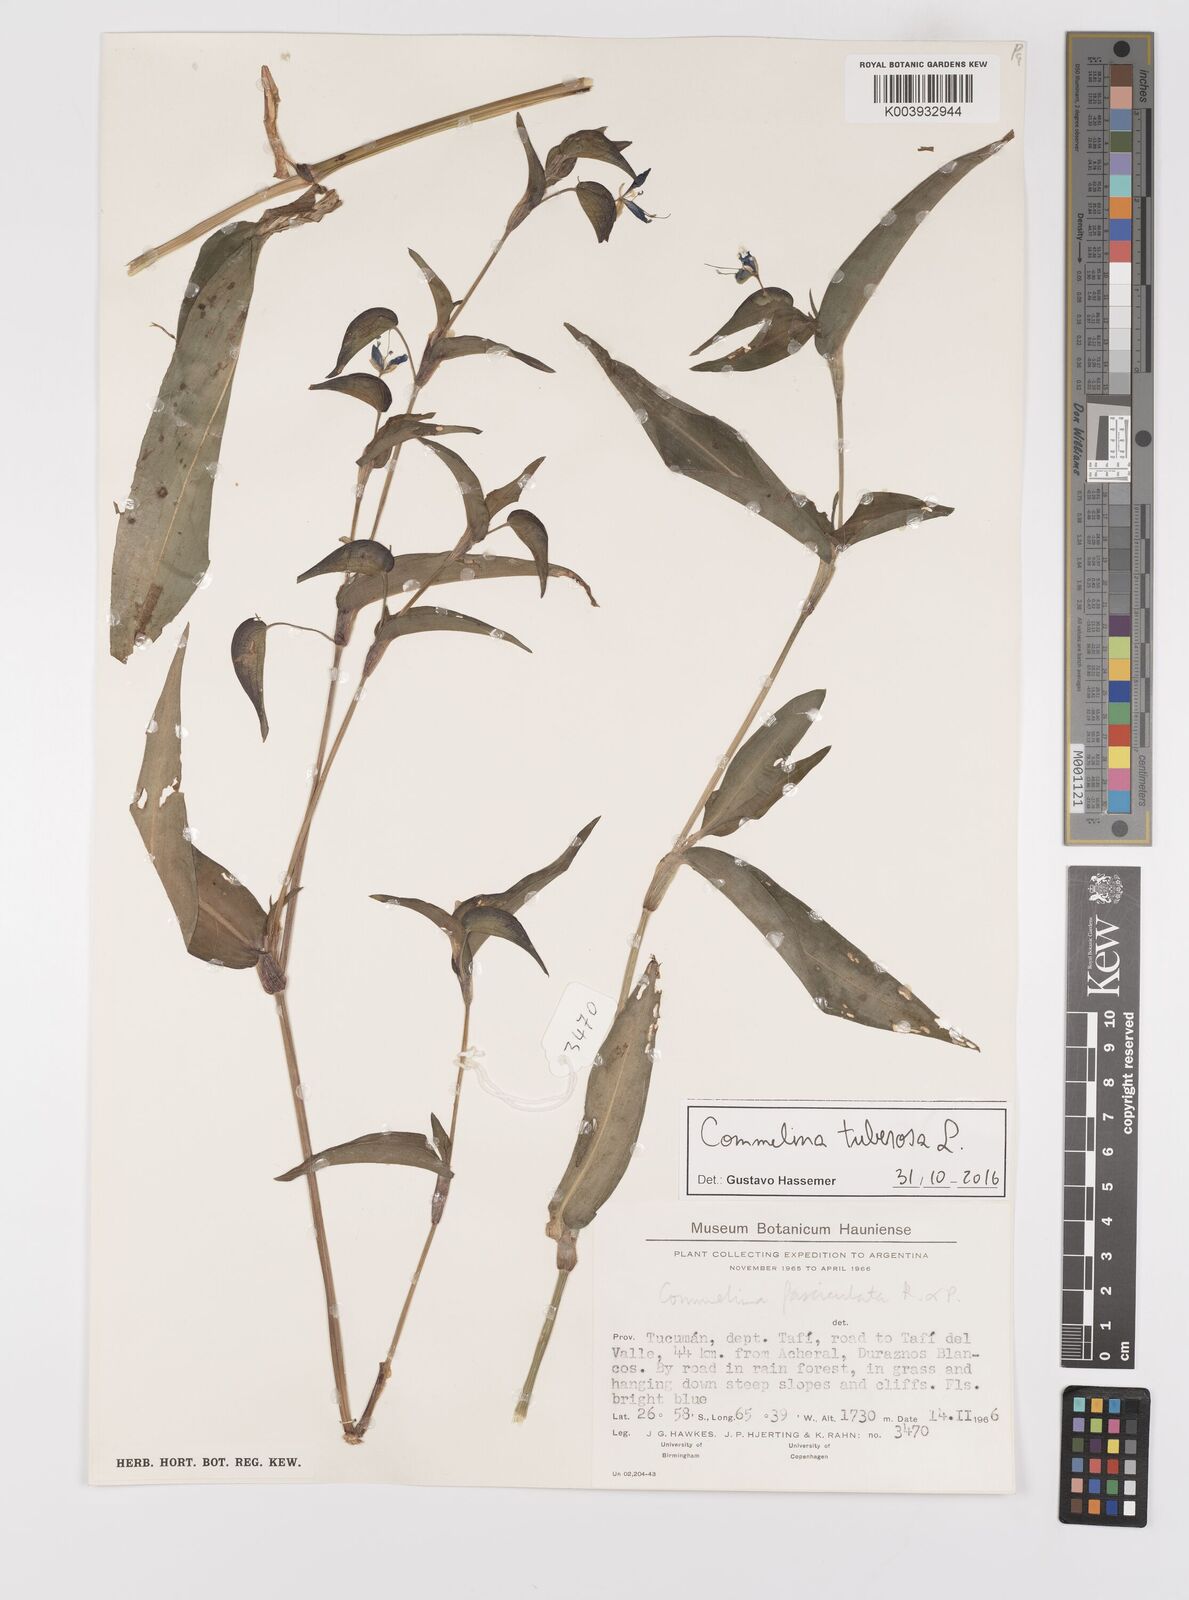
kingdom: Plantae
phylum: Tracheophyta
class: Liliopsida
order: Commelinales
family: Commelinaceae
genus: Commelina
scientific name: Commelina tuberosa
